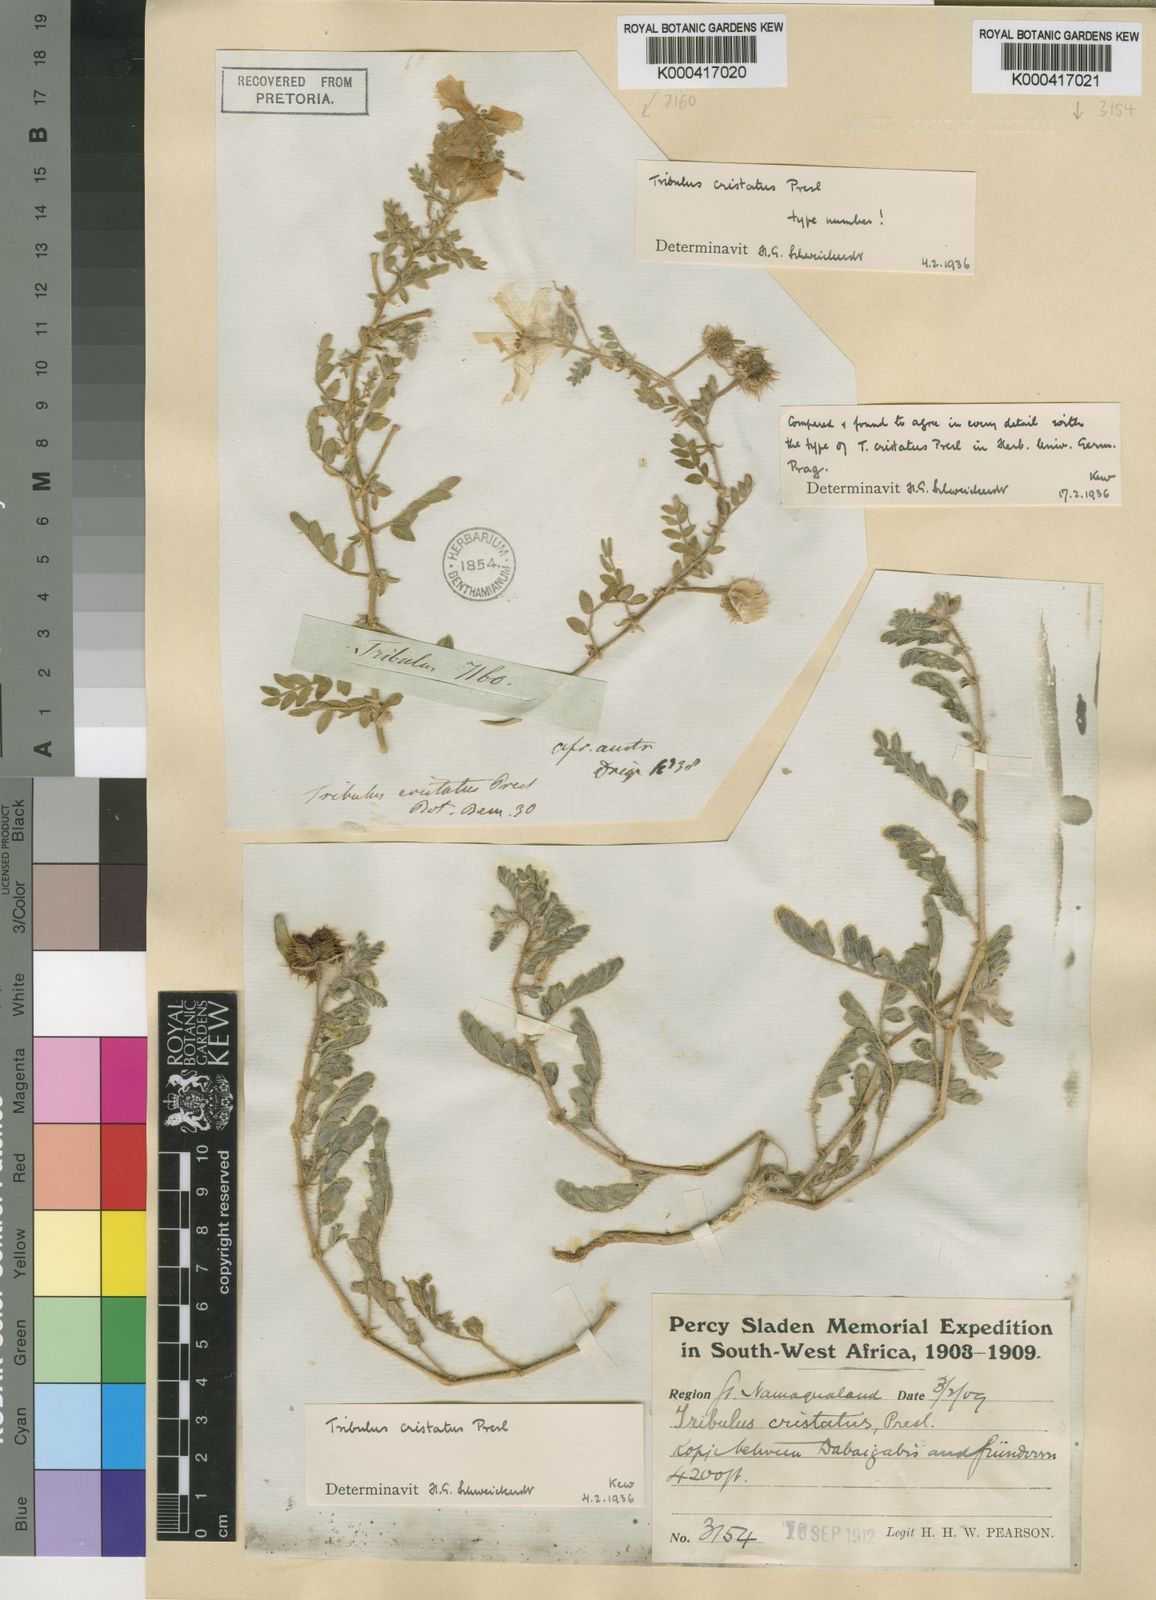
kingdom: Plantae
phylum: Tracheophyta
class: Magnoliopsida
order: Zygophyllales
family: Zygophyllaceae
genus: Tribulus
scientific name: Tribulus cristatus
